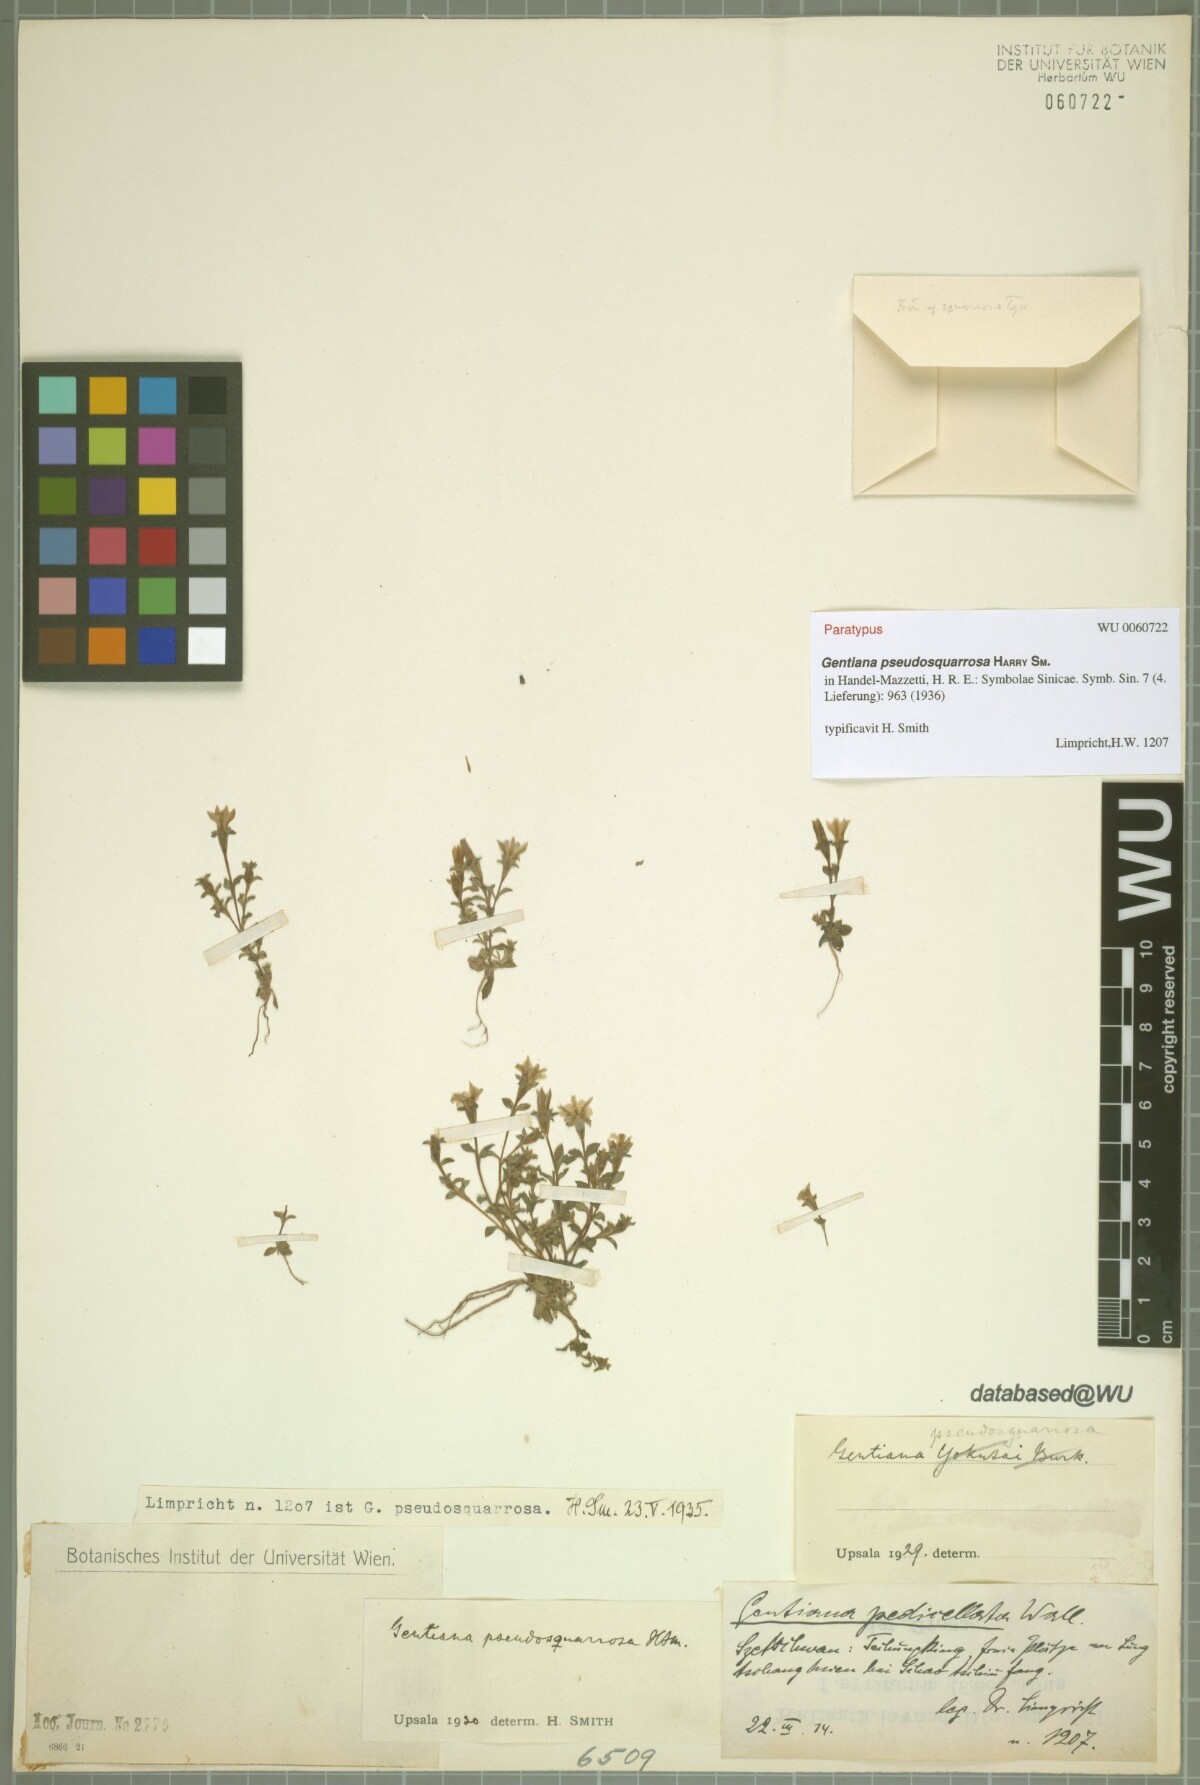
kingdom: Plantae
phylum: Tracheophyta
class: Magnoliopsida
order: Gentianales
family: Gentianaceae
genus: Gentiana
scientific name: Gentiana pseudosquarrosa
